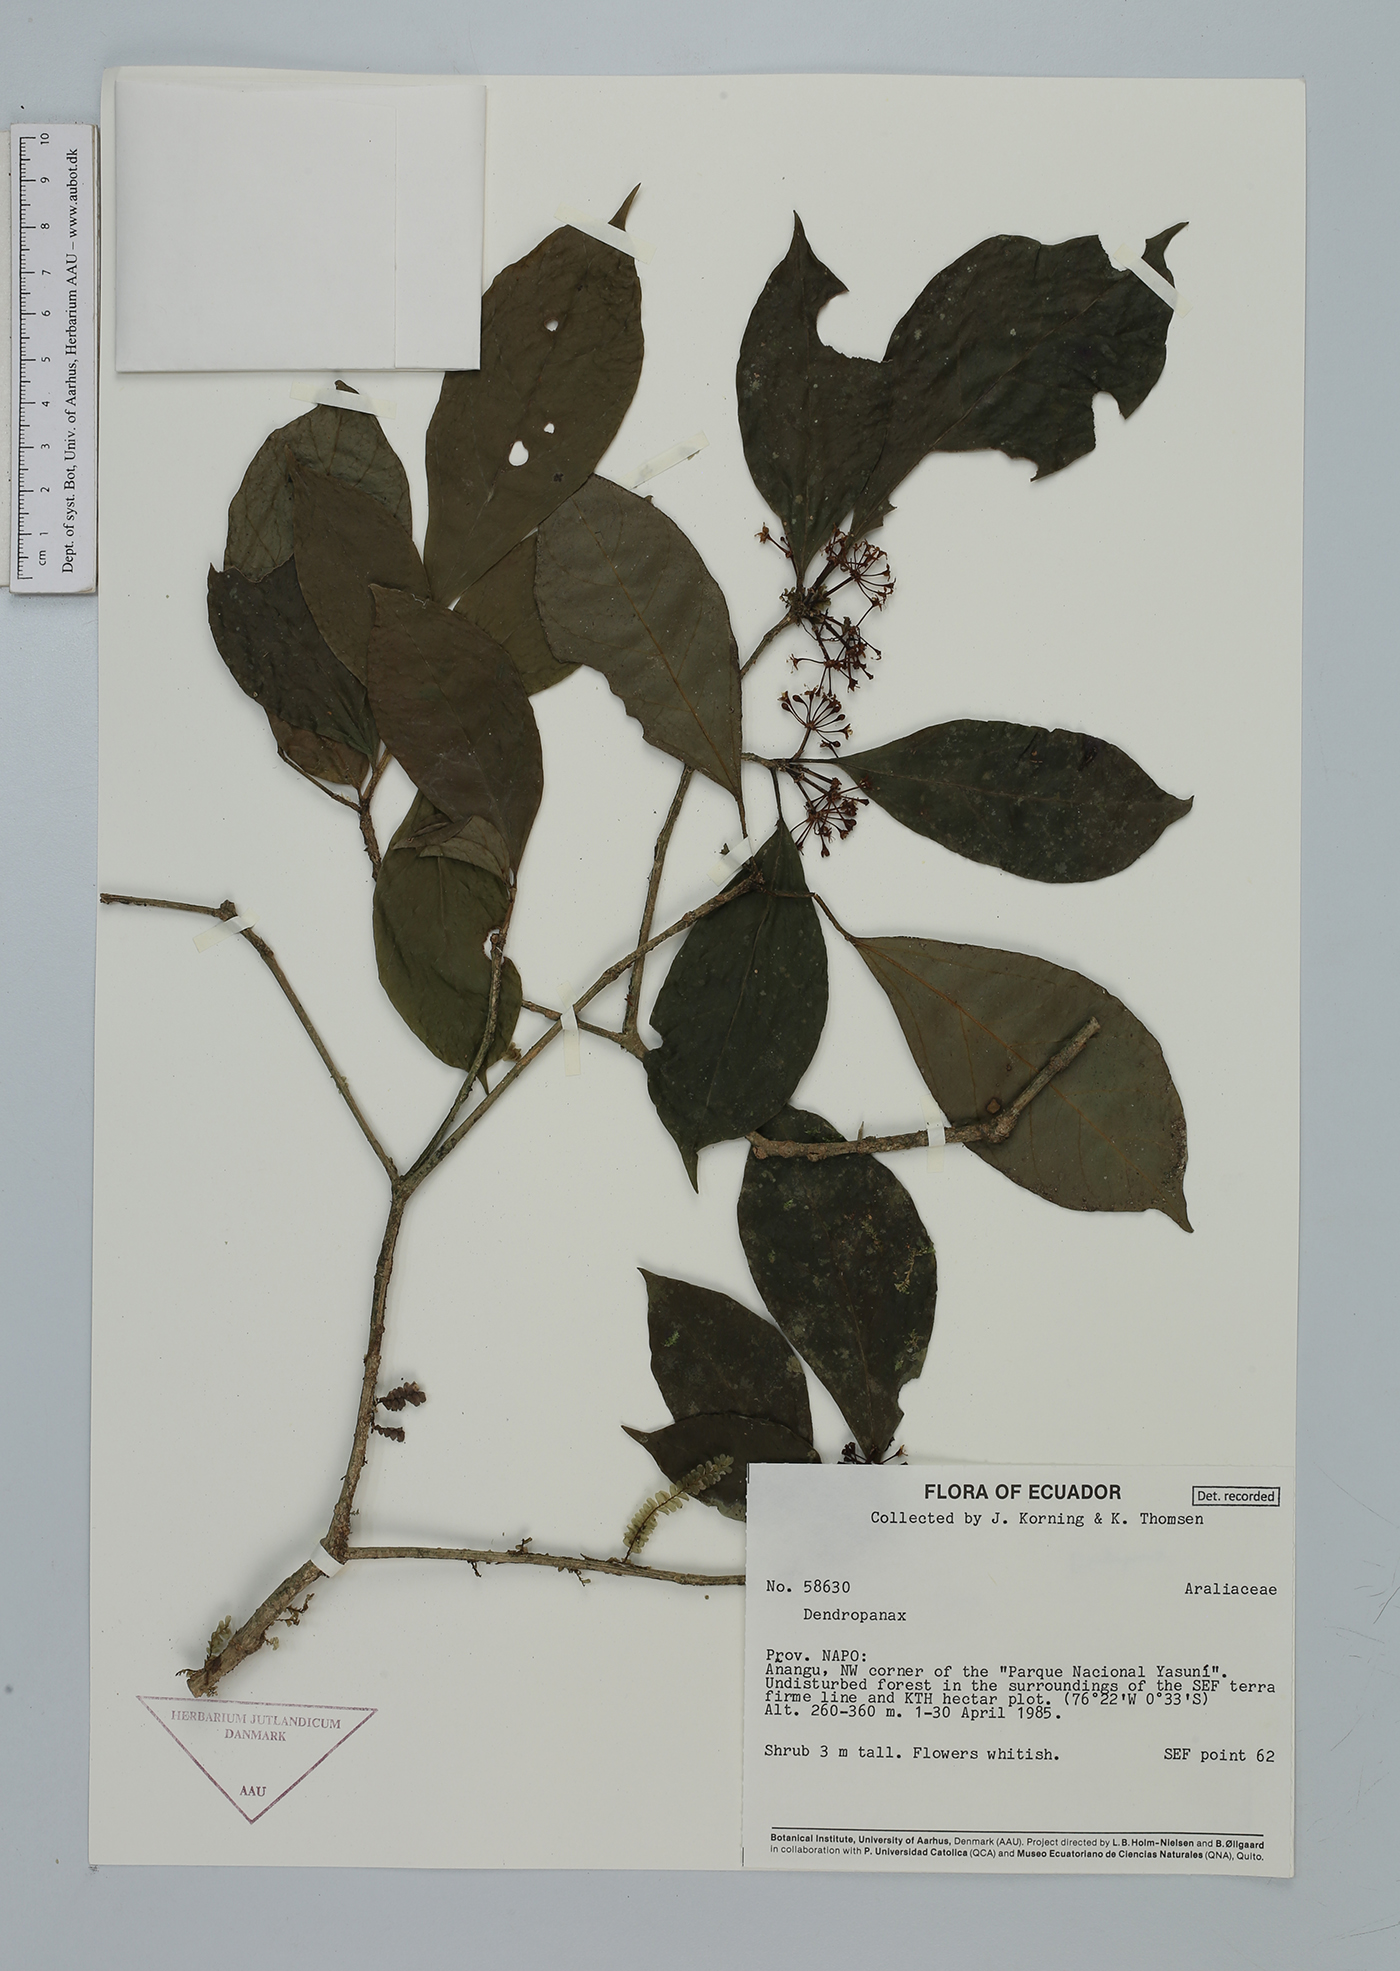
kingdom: Plantae
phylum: Tracheophyta
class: Magnoliopsida
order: Apiales
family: Araliaceae
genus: Dendropanax
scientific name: Dendropanax
